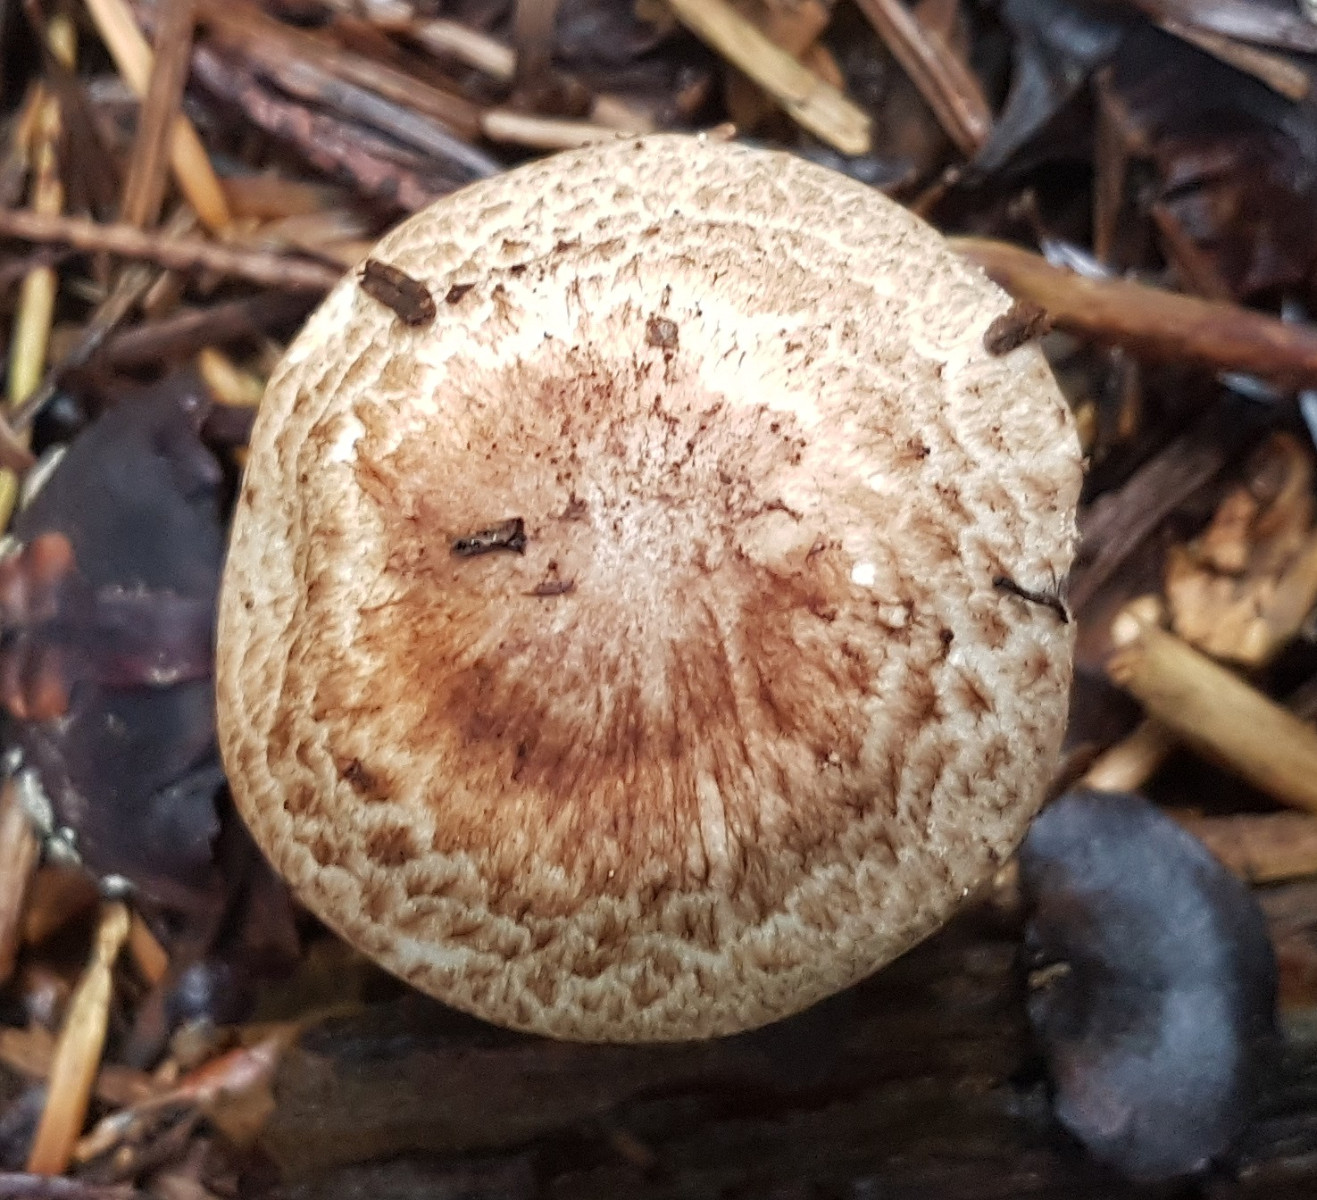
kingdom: Fungi
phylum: Basidiomycota
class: Agaricomycetes
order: Agaricales
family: Agaricaceae
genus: Agaricus
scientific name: Agaricus impudicus
